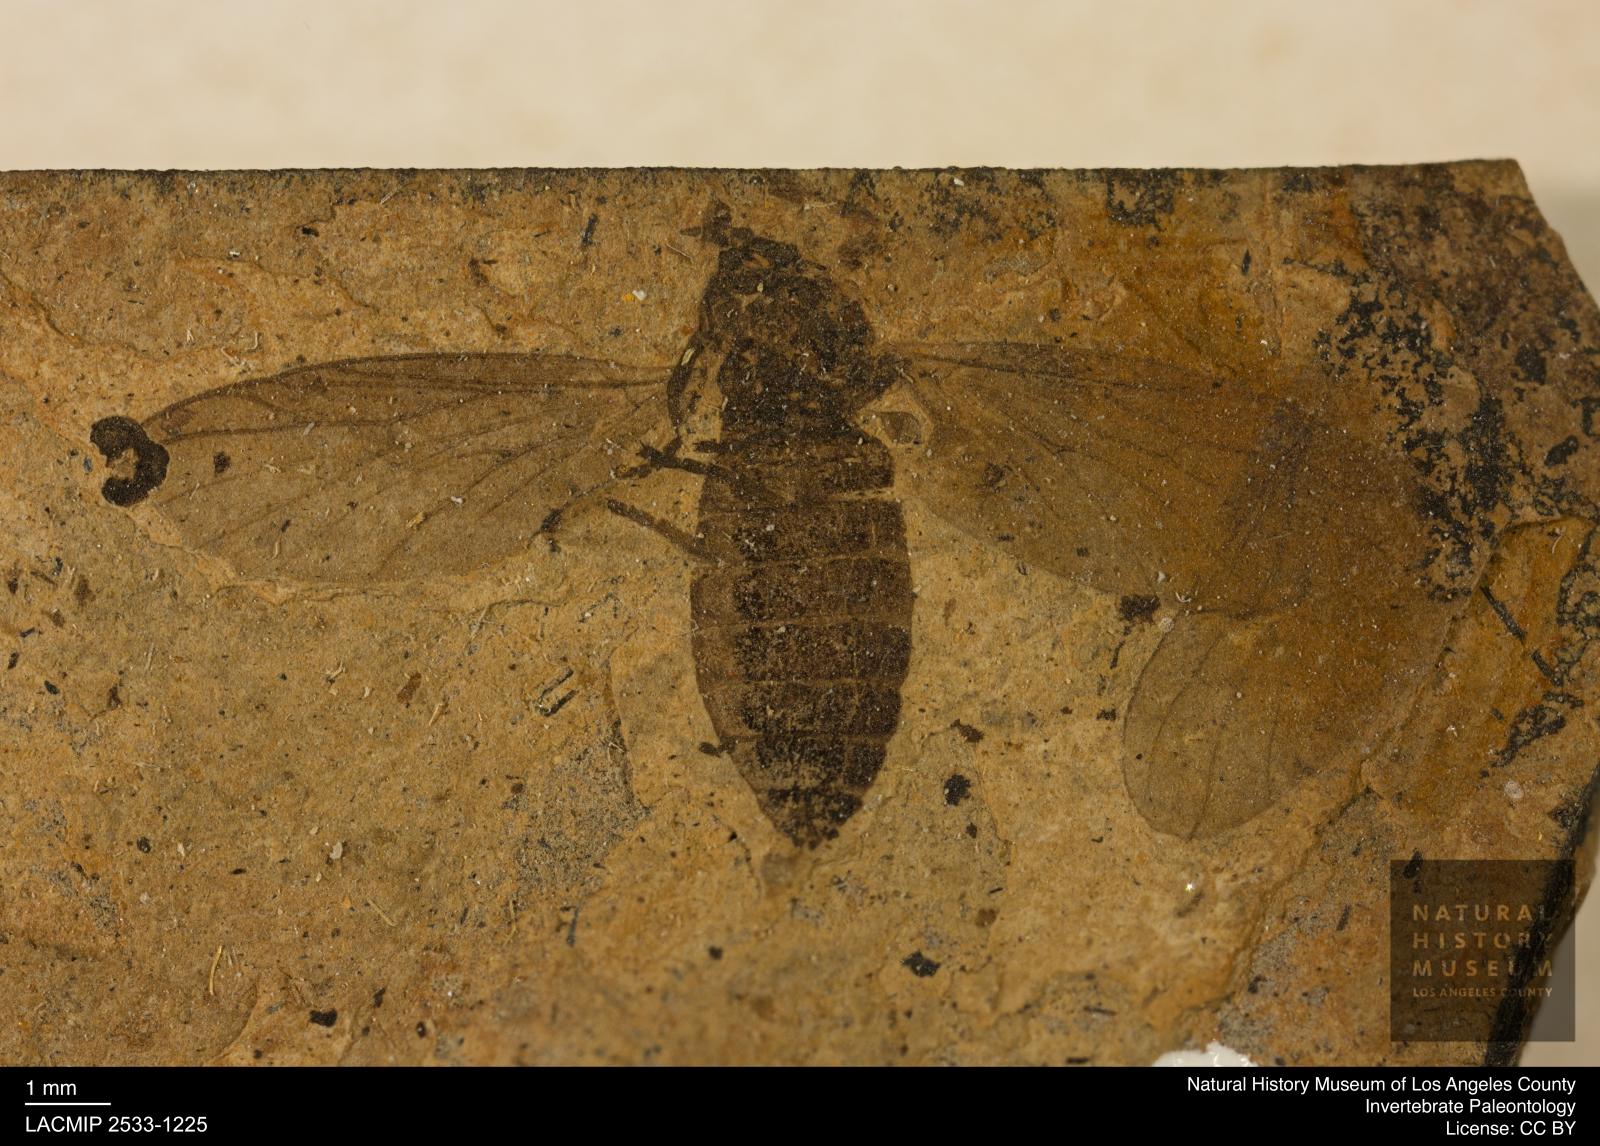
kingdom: Animalia
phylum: Arthropoda
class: Insecta
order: Diptera
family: Bibionidae
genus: Plecia
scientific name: Plecia grossa
